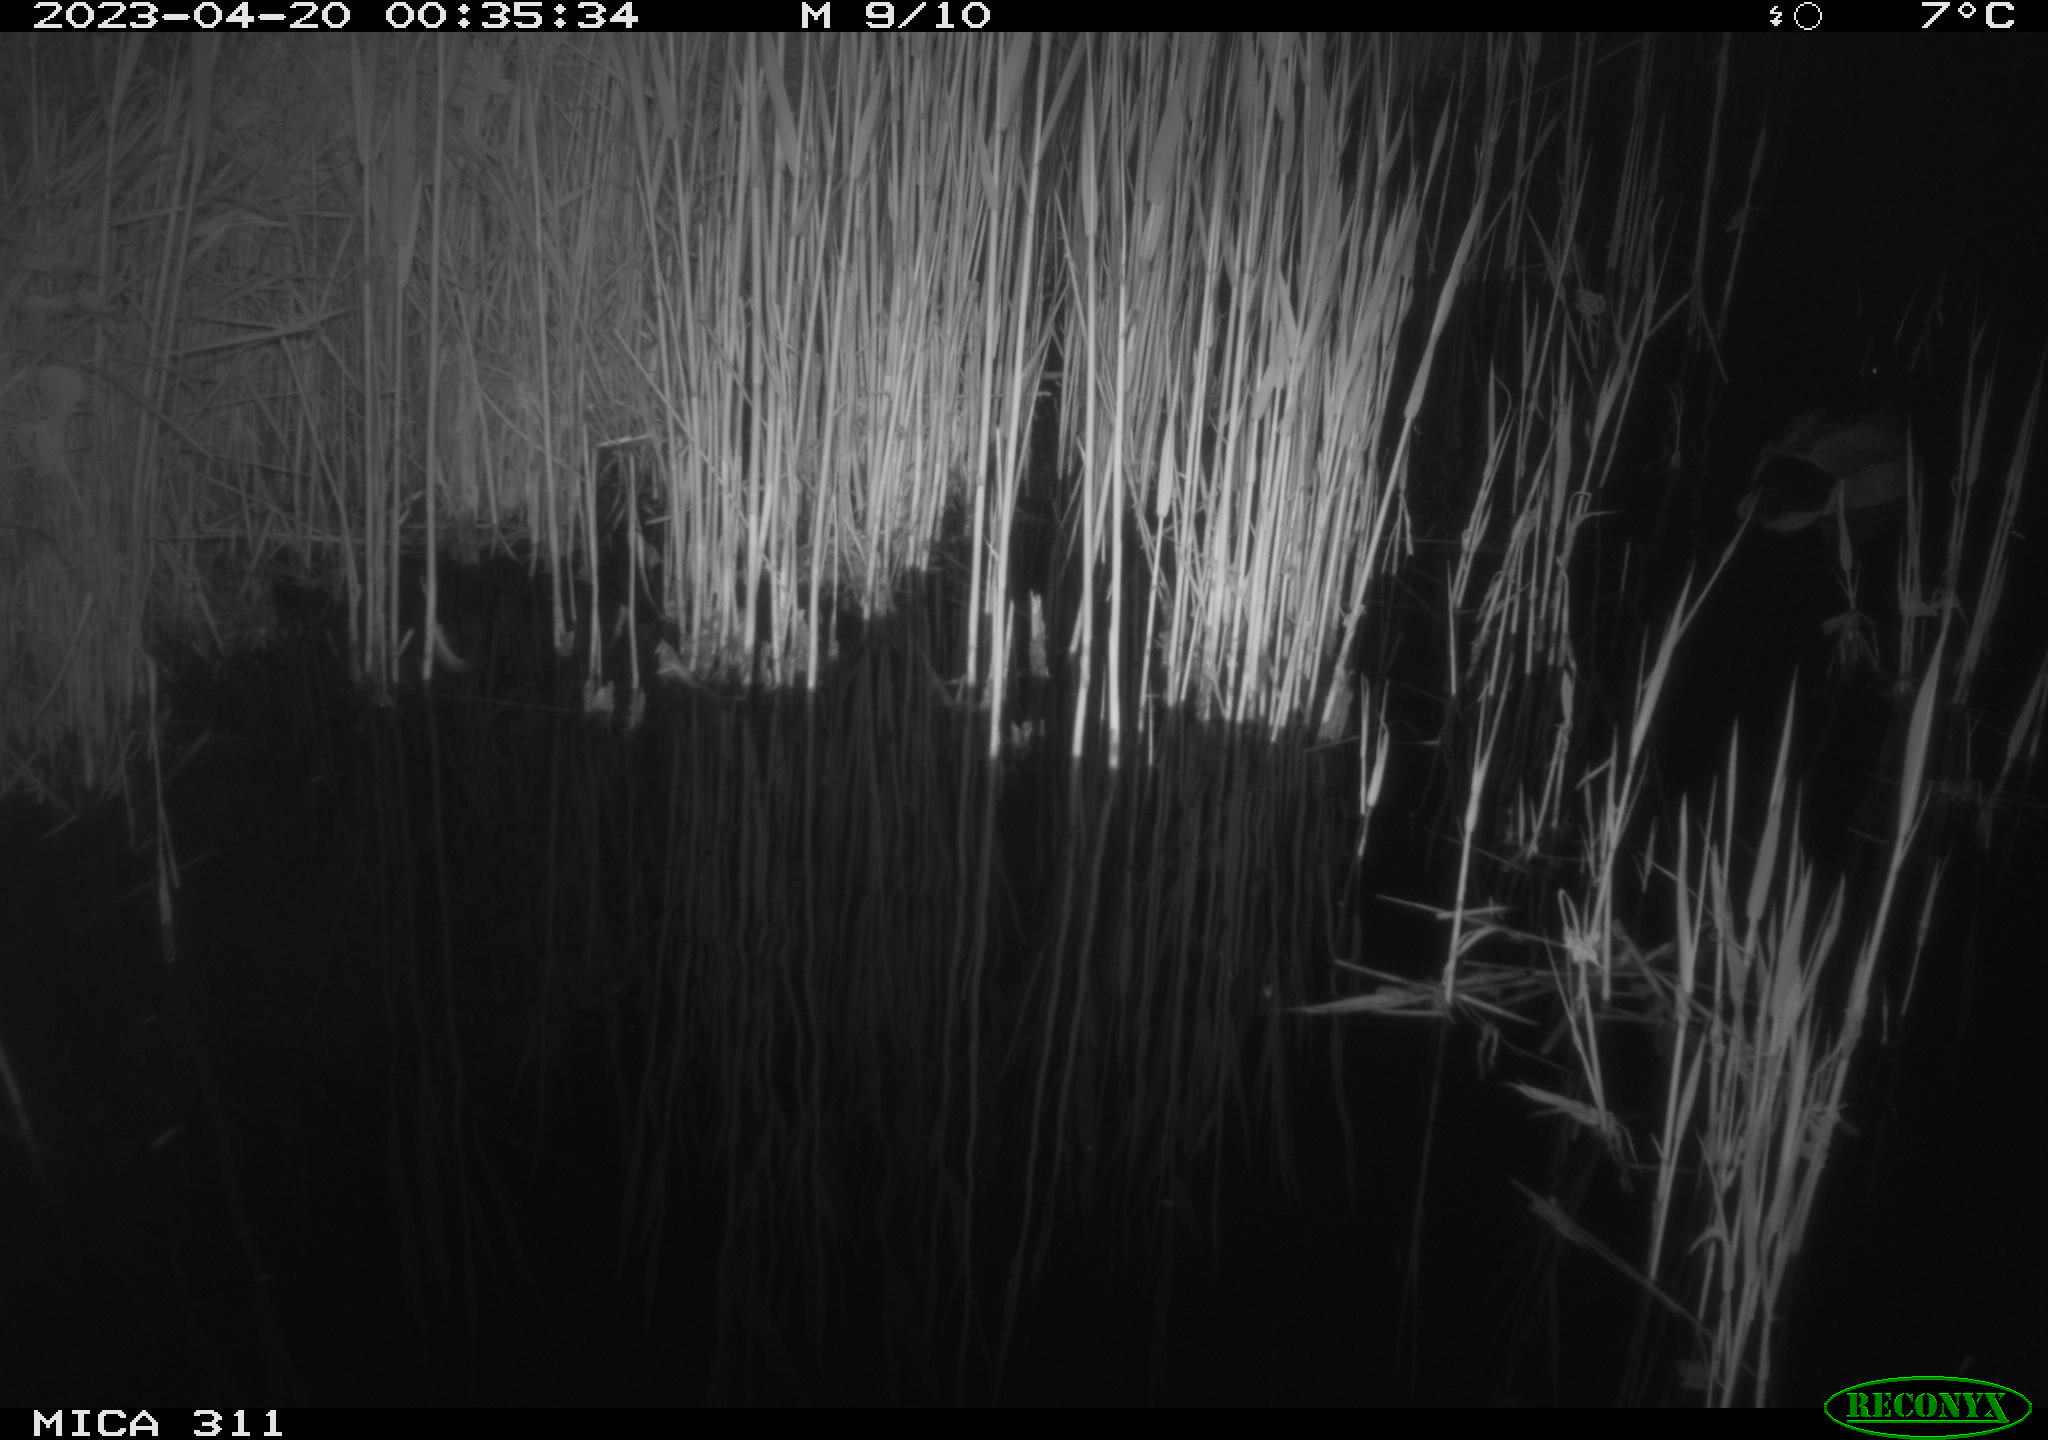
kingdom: Animalia
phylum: Chordata
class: Aves
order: Anseriformes
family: Anatidae
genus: Anas
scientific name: Anas
